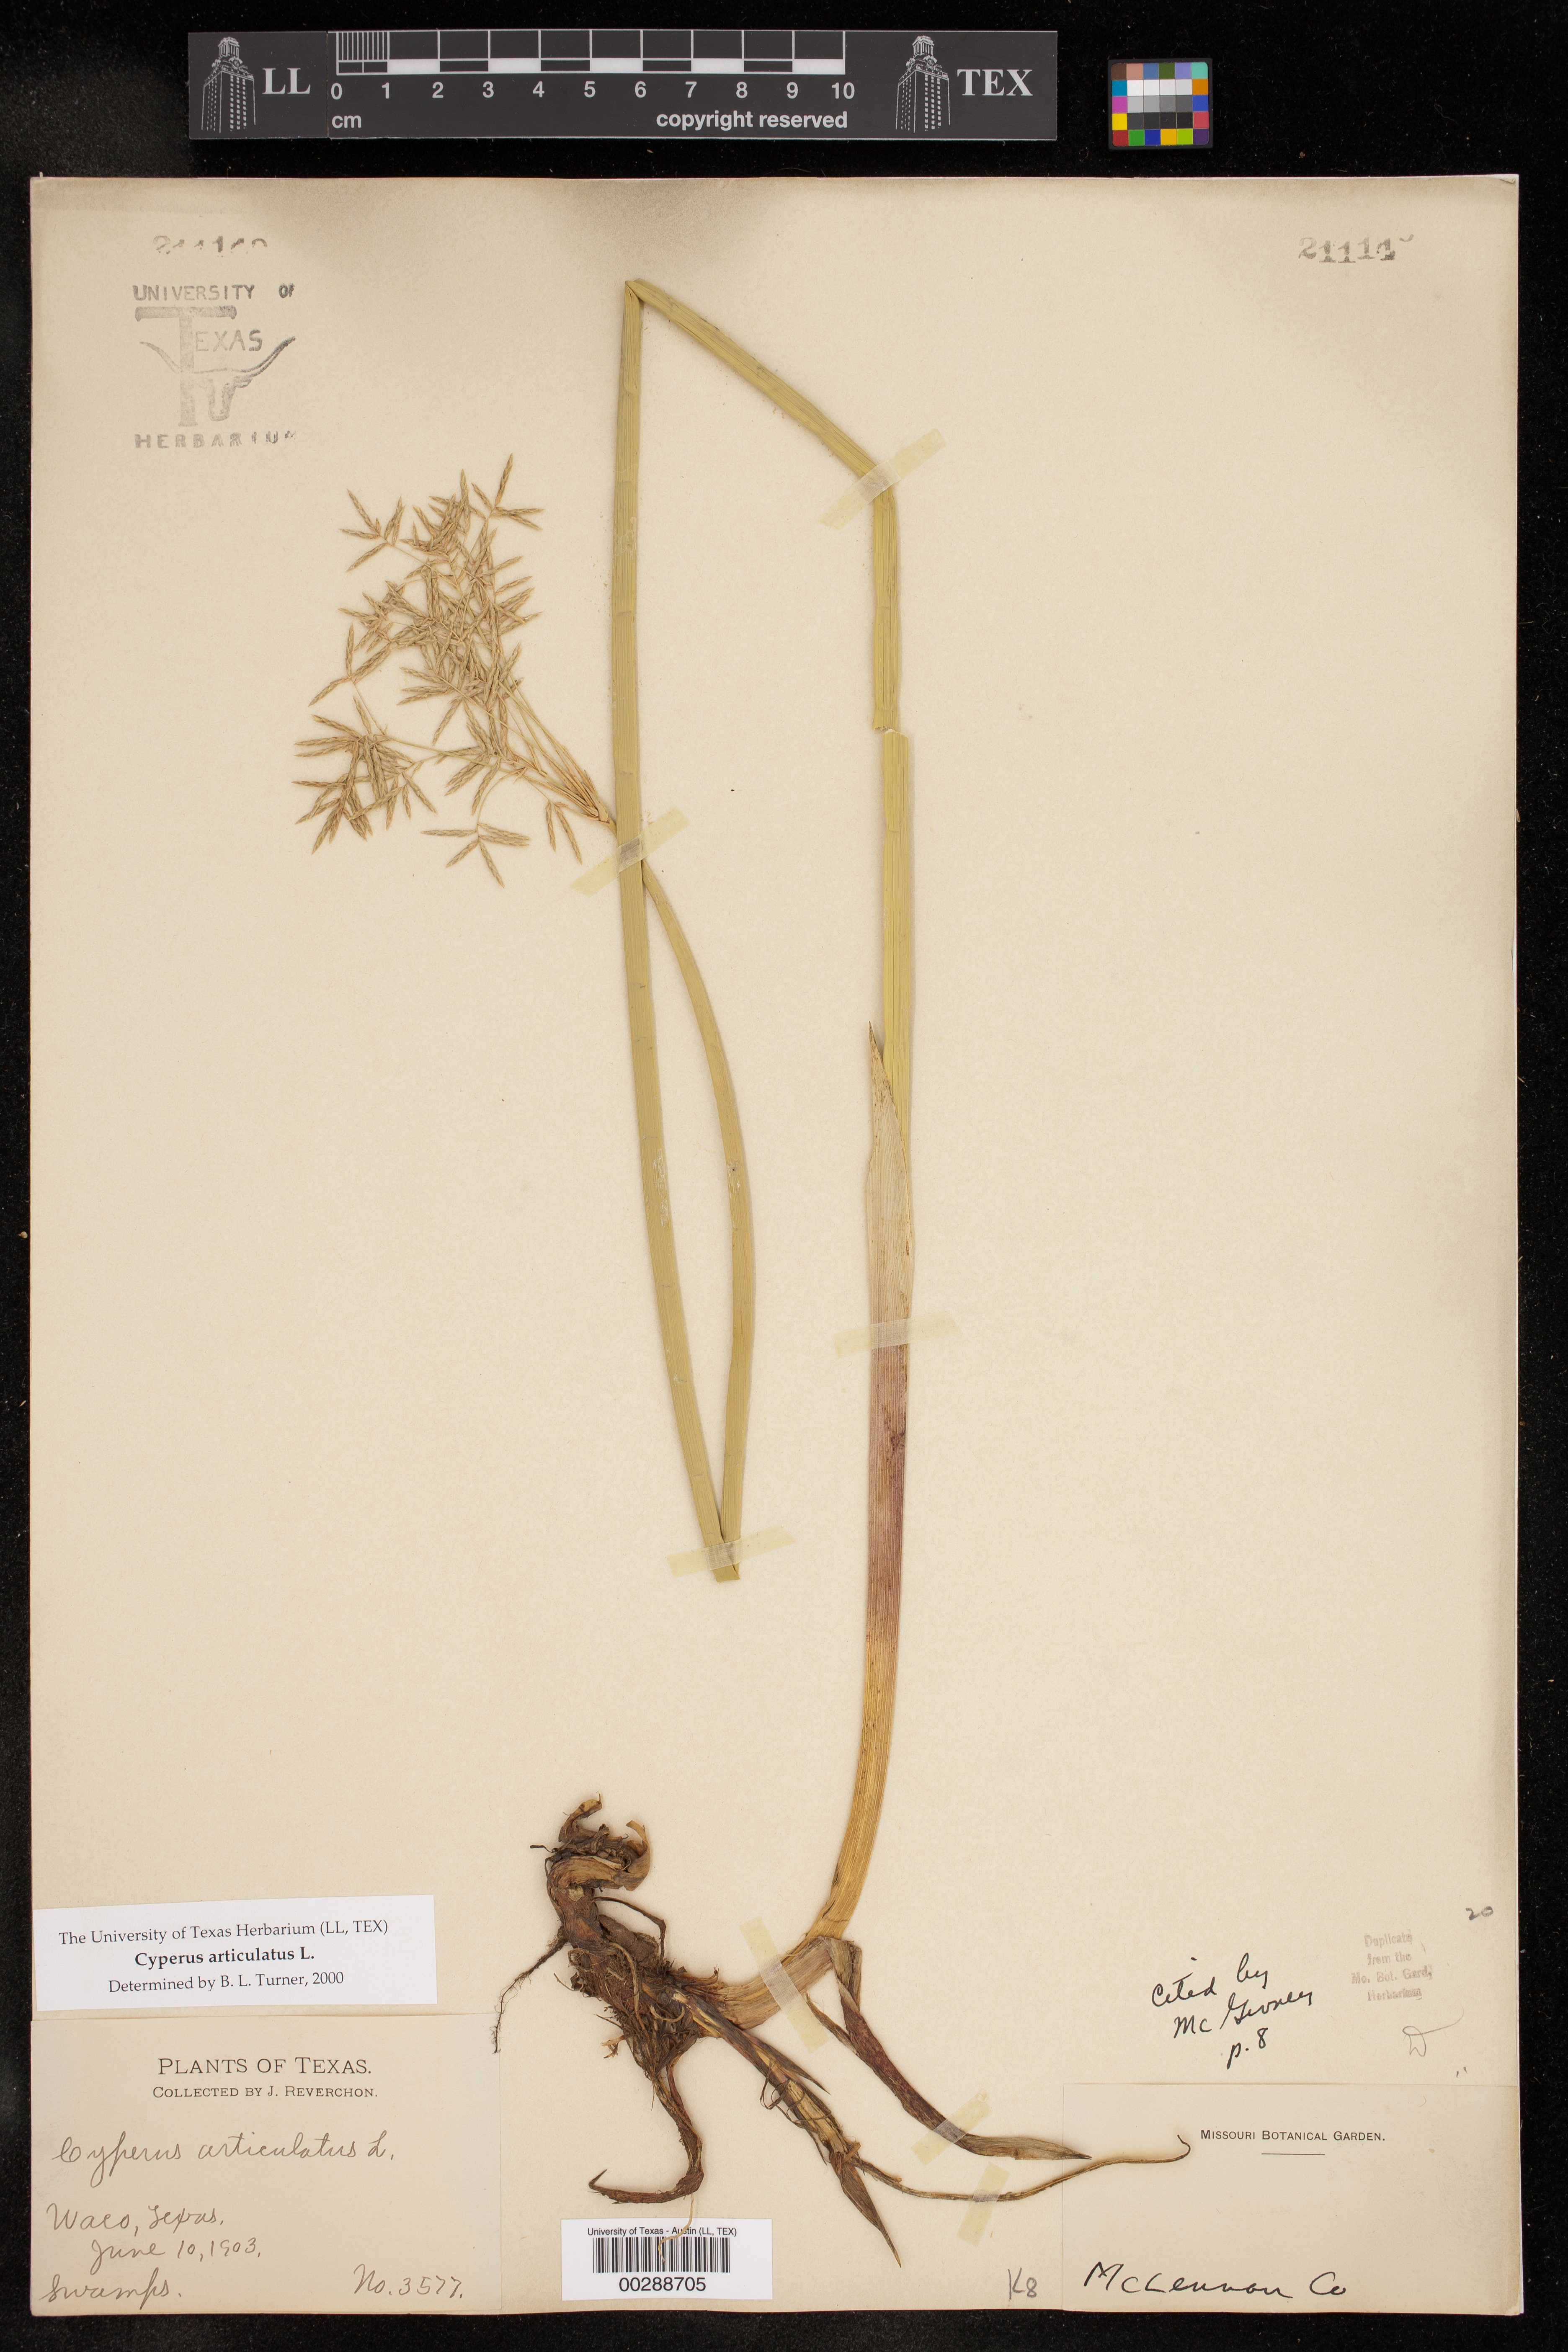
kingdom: Plantae
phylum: Tracheophyta
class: Liliopsida
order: Poales
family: Cyperaceae
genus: Cyperus
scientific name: Cyperus articulatus
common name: Jointed flatsedge
